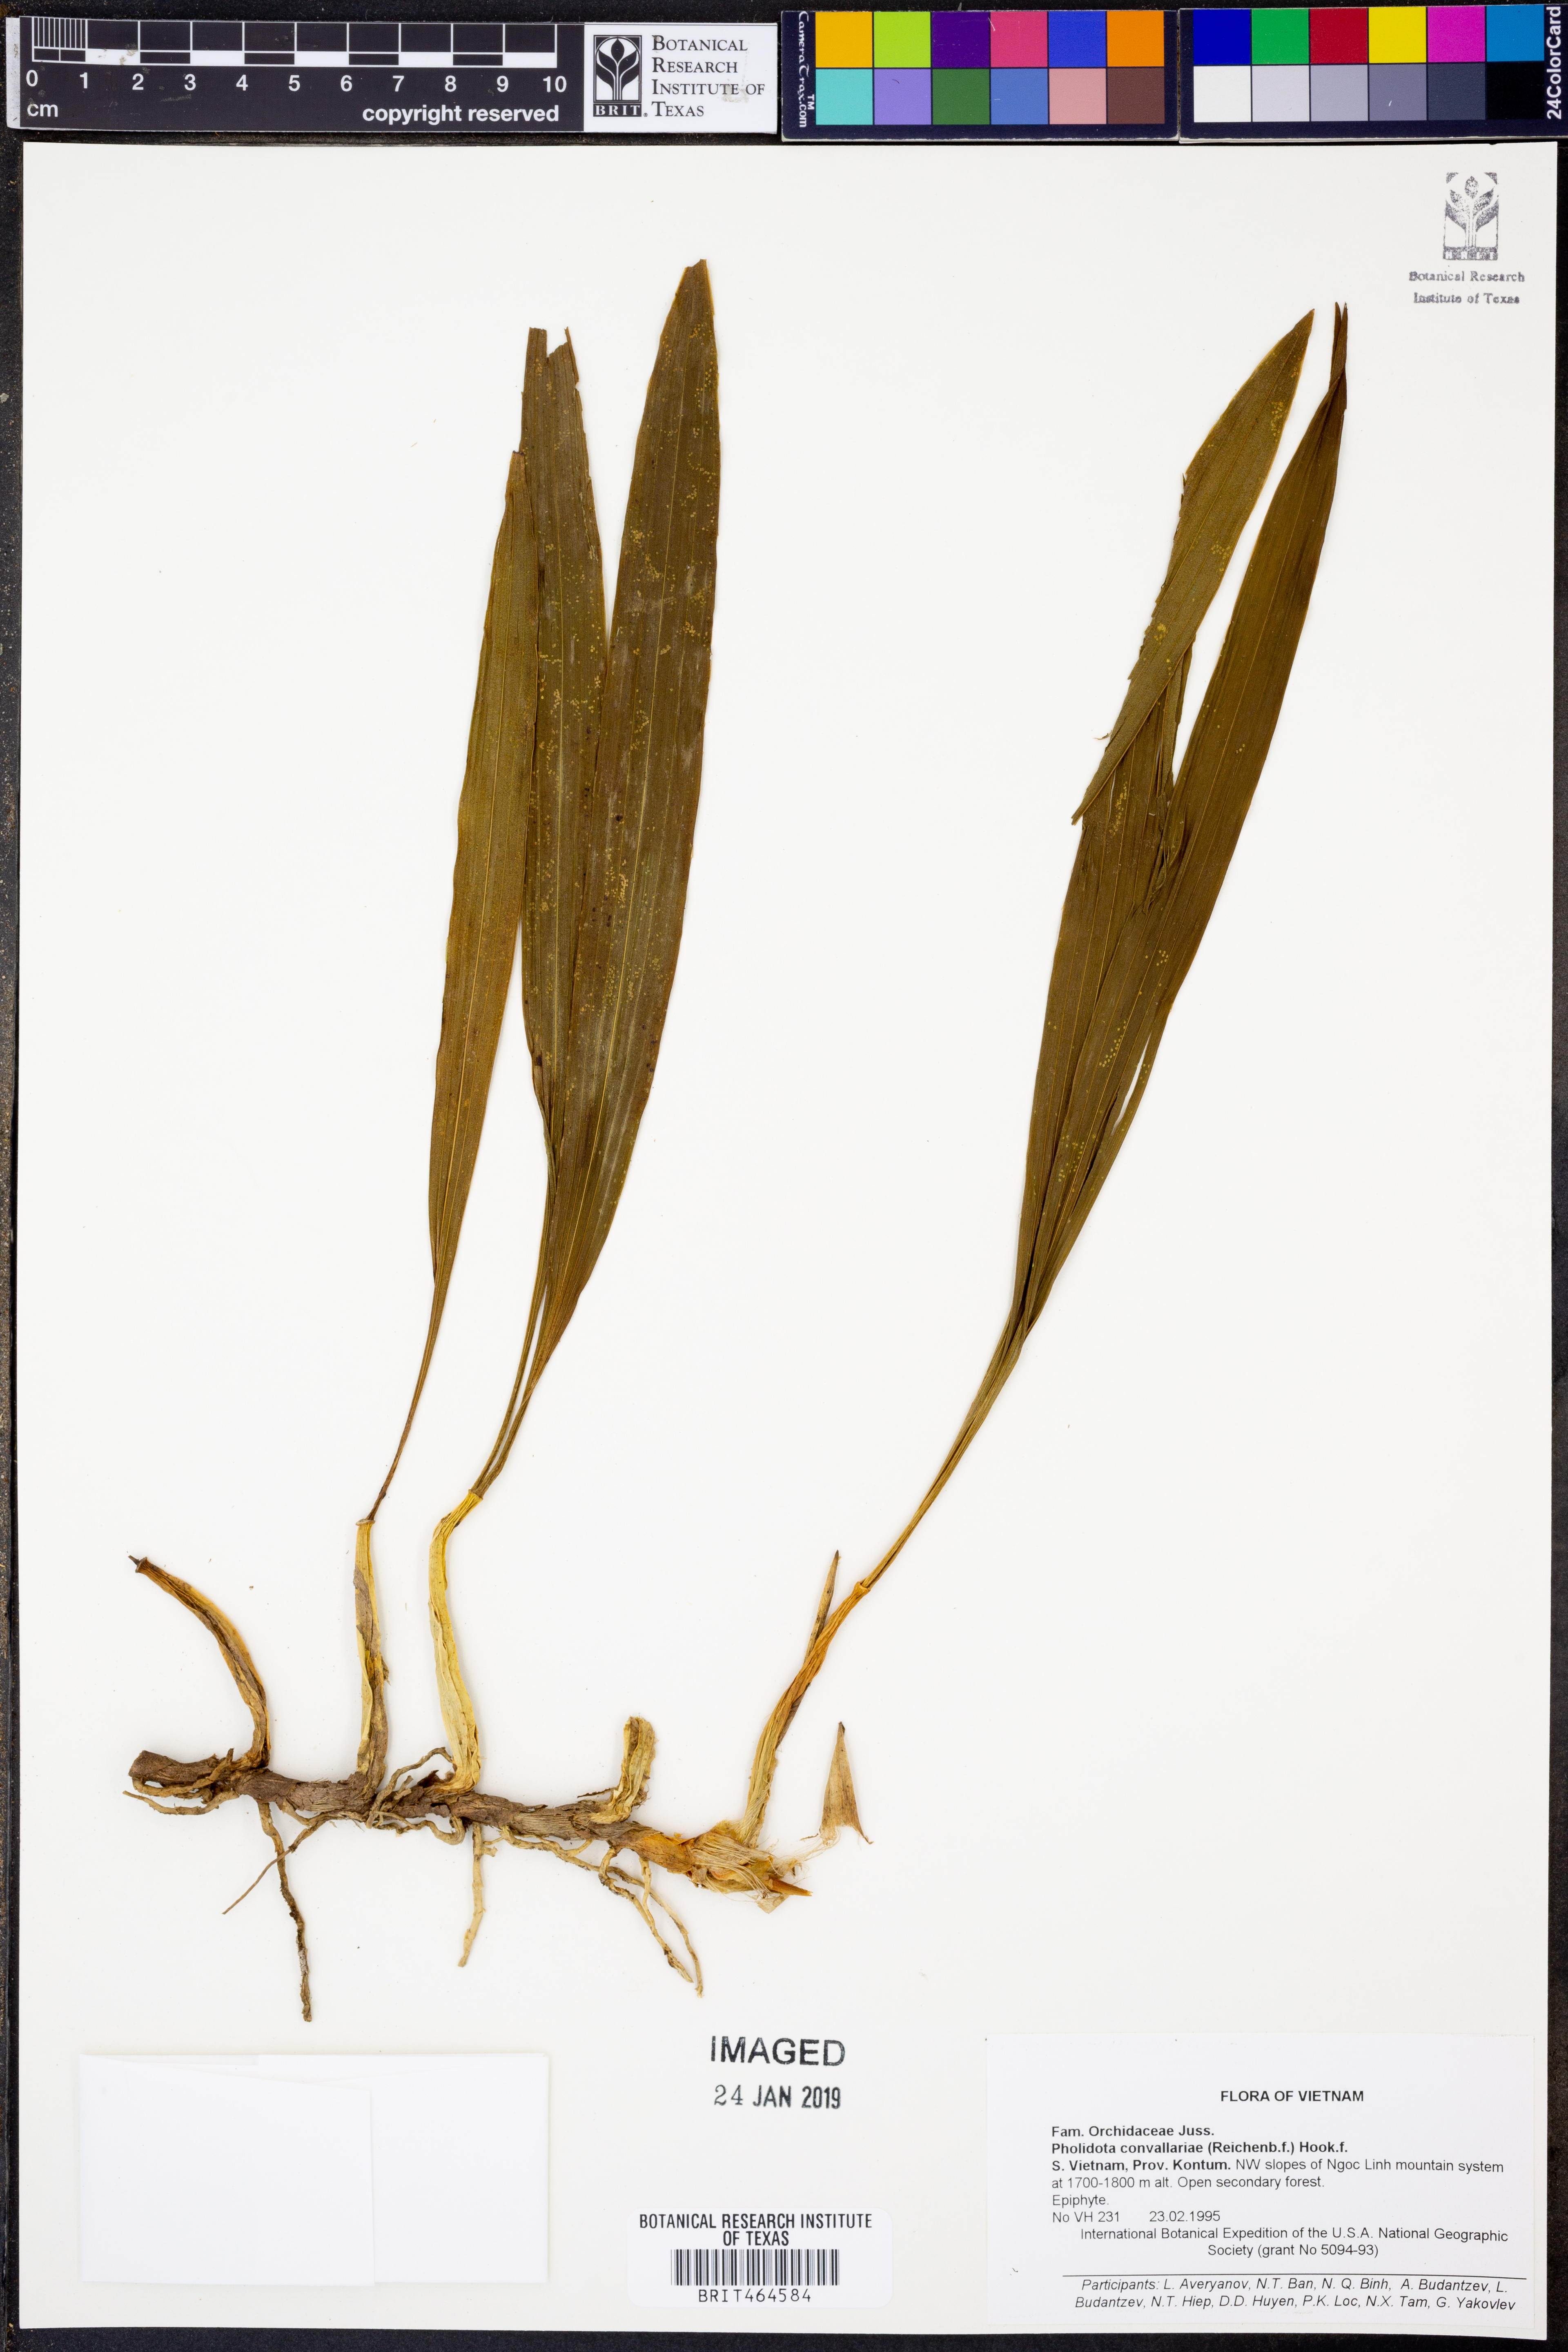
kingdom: Plantae
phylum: Tracheophyta
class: Liliopsida
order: Asparagales
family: Orchidaceae
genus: Coelogyne
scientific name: Coelogyne convallariae
